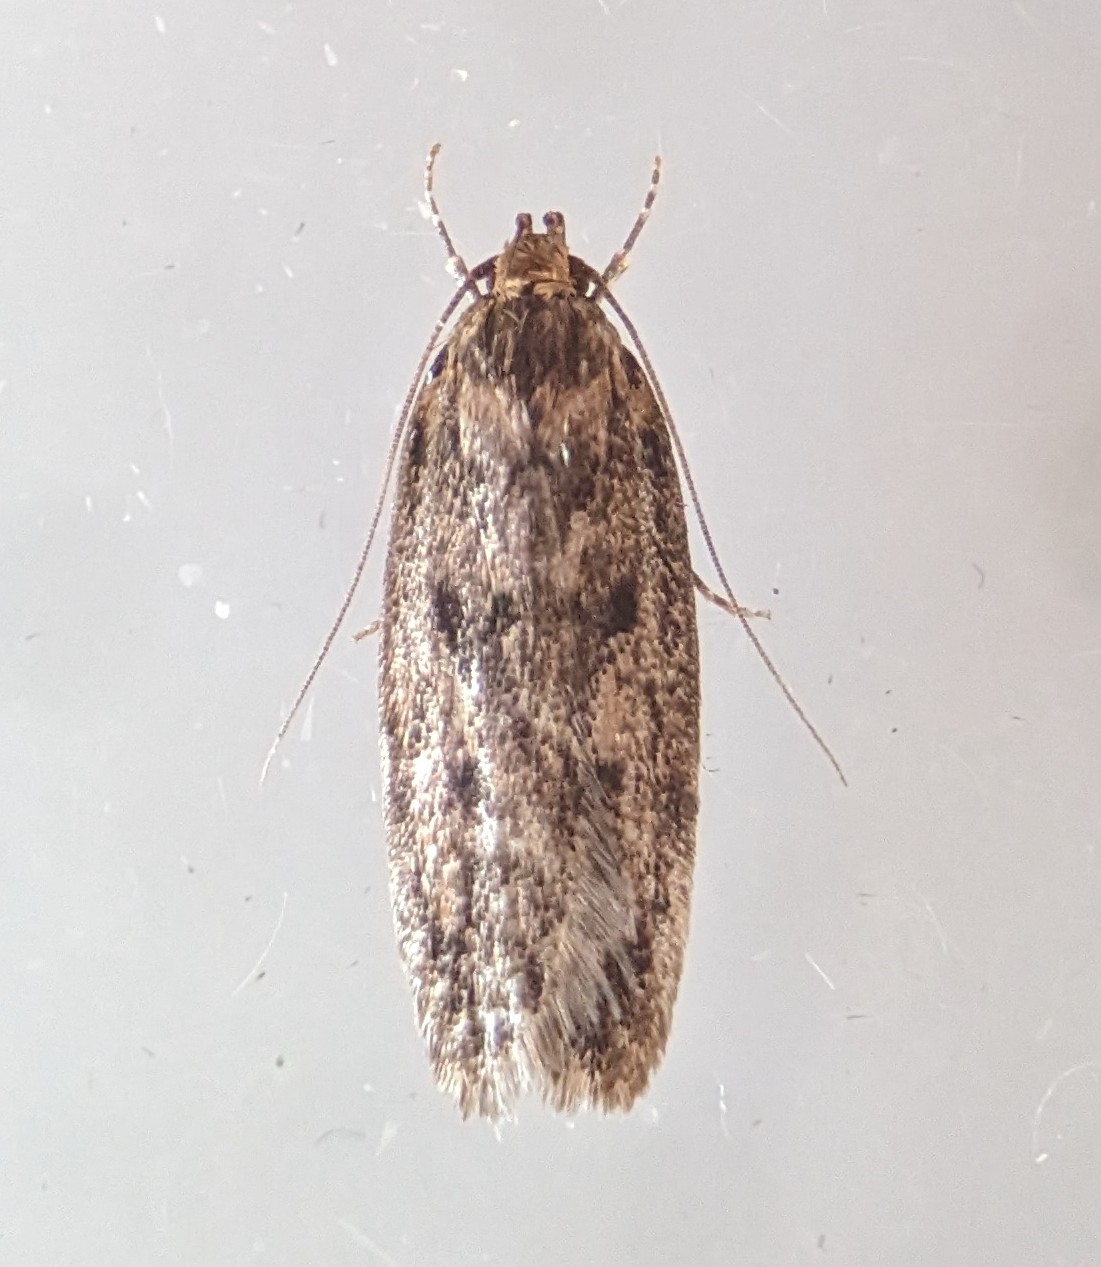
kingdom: Animalia
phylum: Arthropoda
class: Insecta
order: Lepidoptera
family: Oecophoridae
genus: Hofmannophila
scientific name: Hofmannophila pseudospretella
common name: Frømøl
